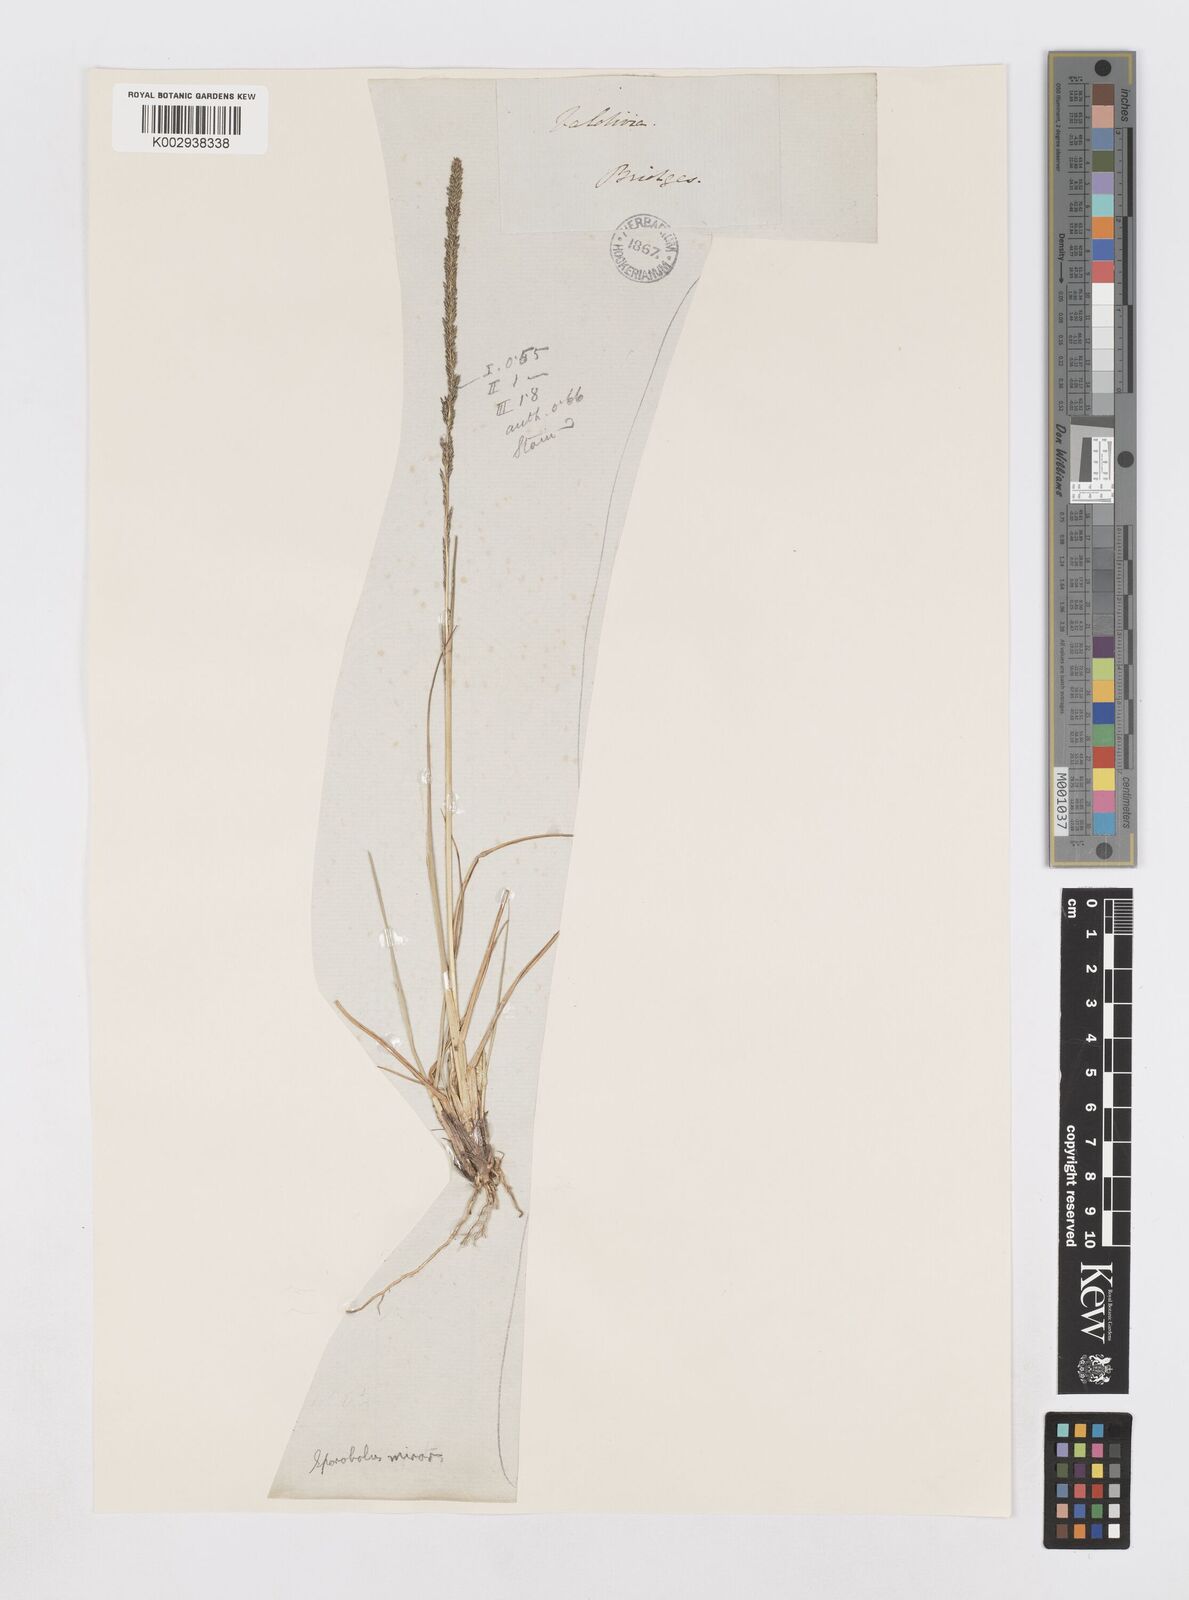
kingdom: Plantae
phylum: Tracheophyta
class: Liliopsida
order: Poales
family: Poaceae
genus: Sporobolus
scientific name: Sporobolus minor
